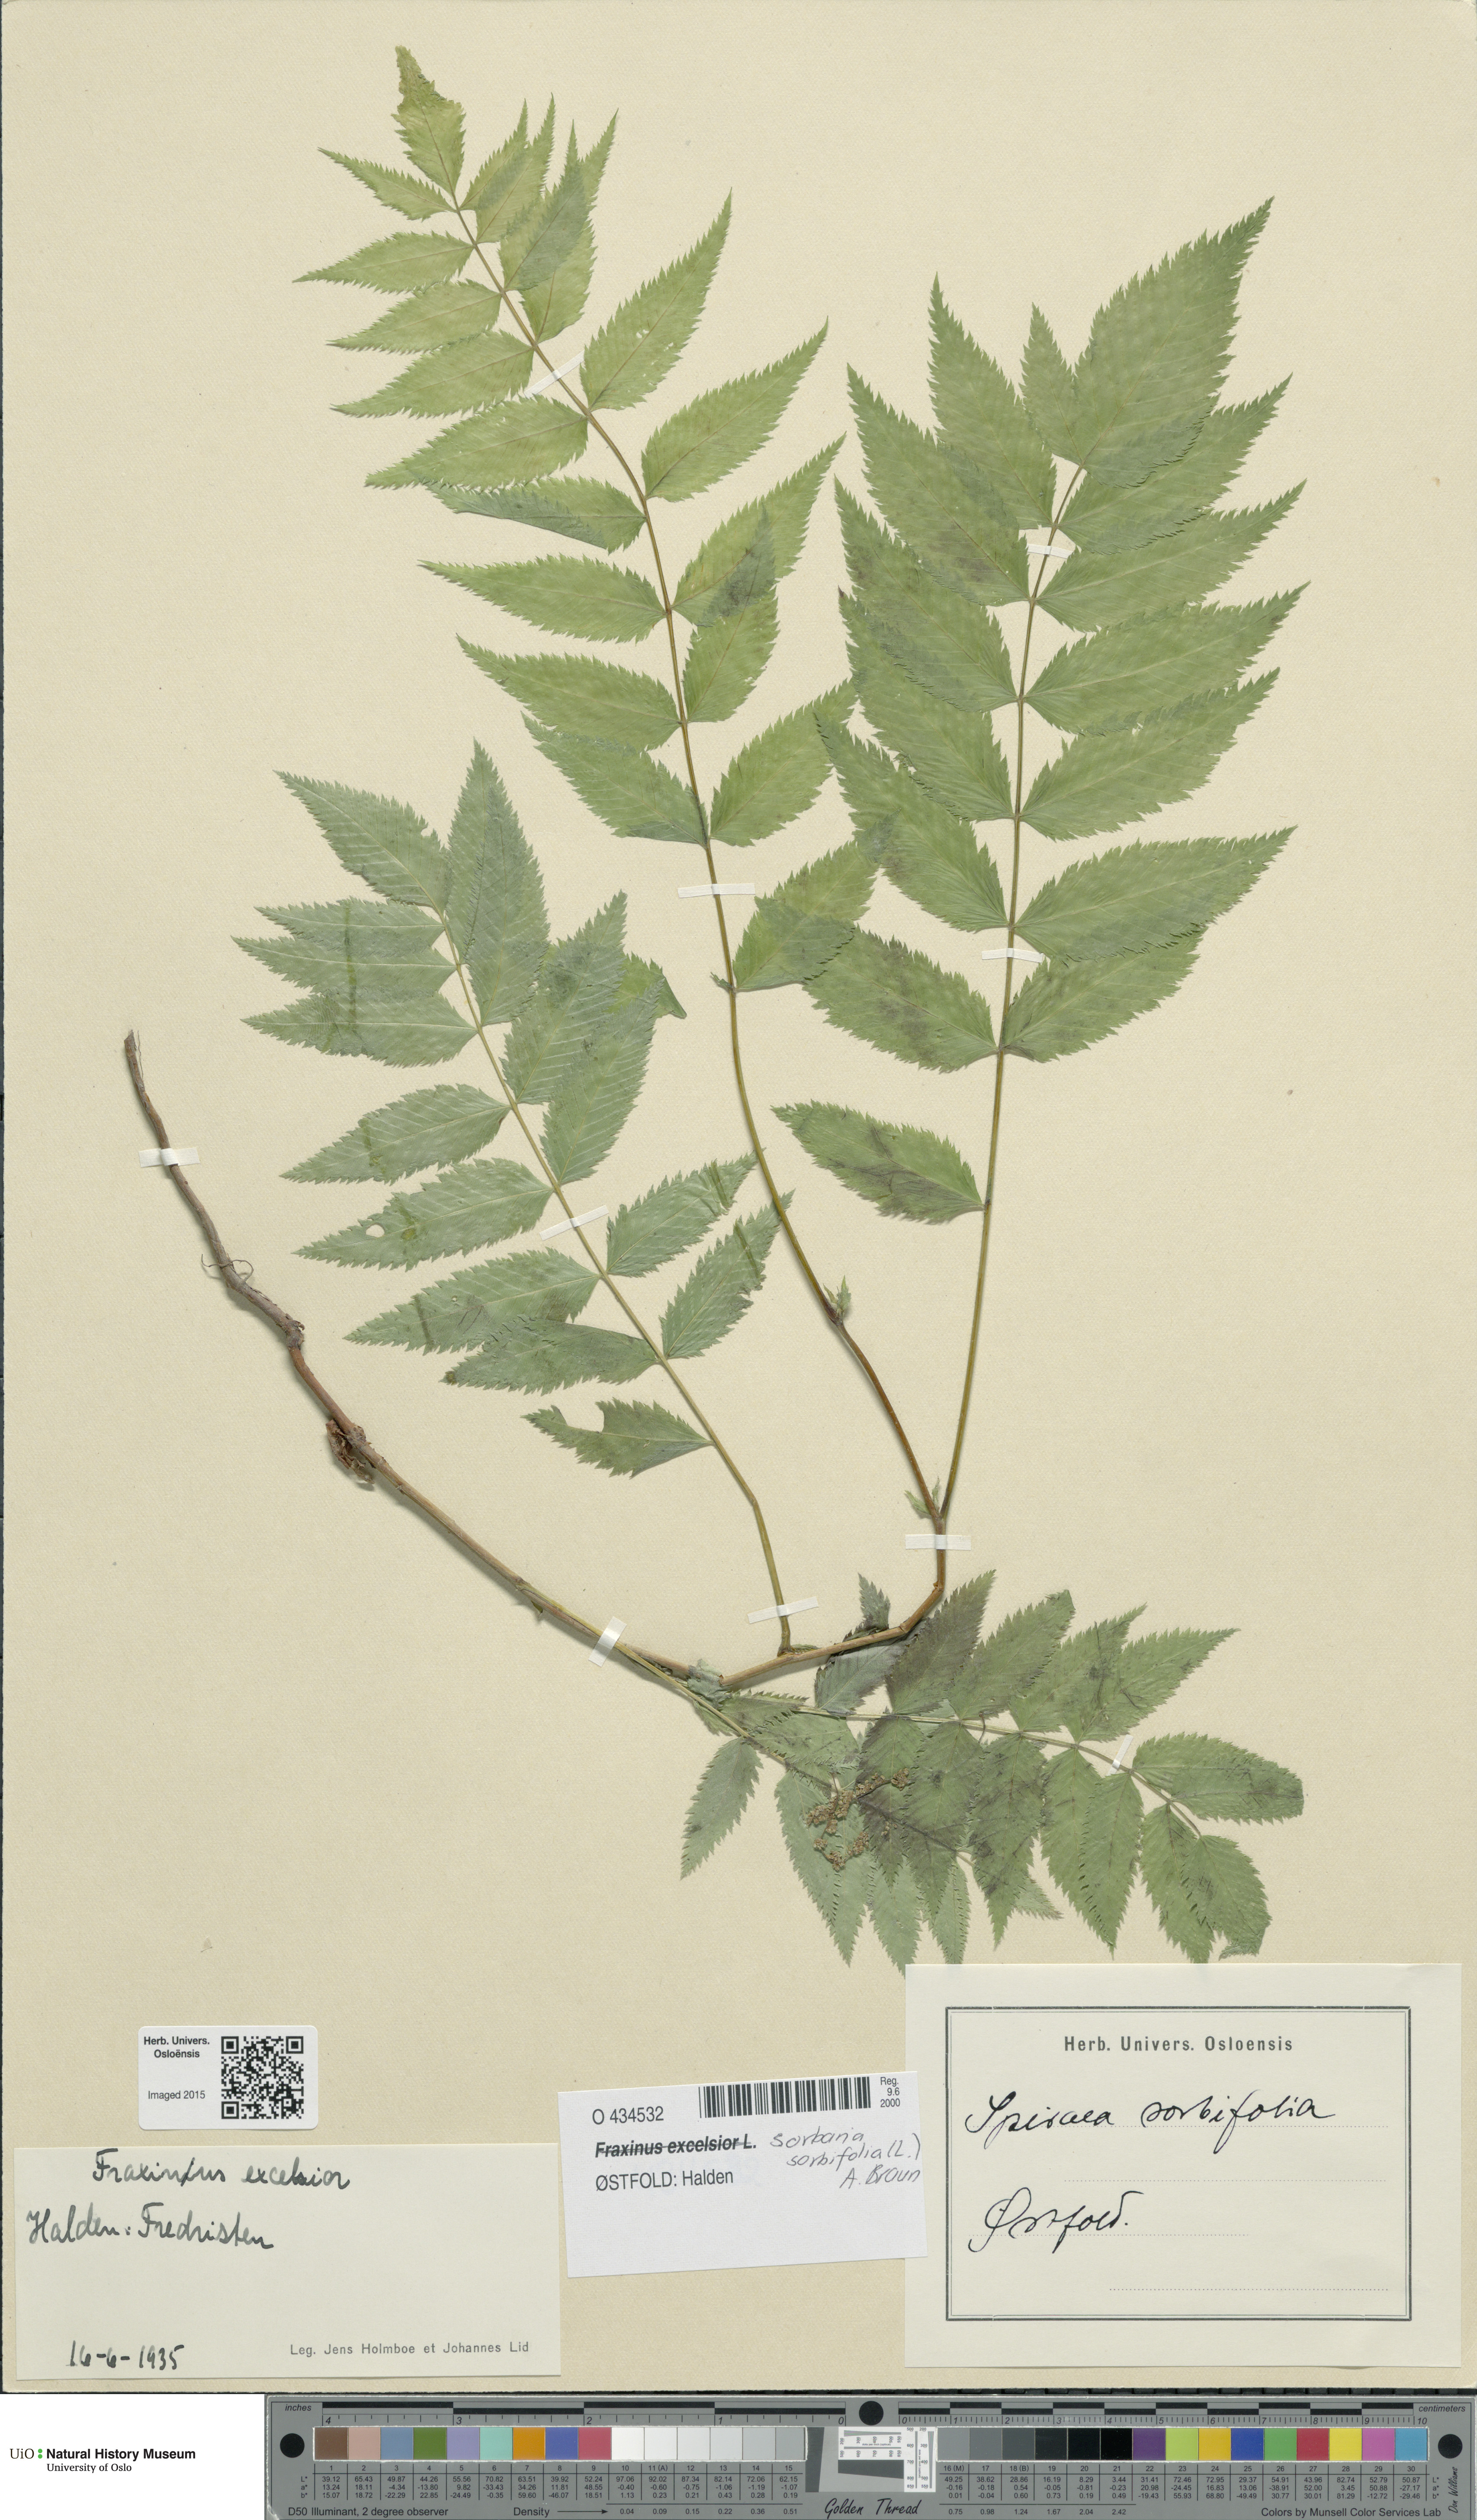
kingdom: Plantae
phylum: Tracheophyta
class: Magnoliopsida
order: Rosales
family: Rosaceae
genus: Sorbaria
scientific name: Sorbaria sorbifolia
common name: False spiraea
